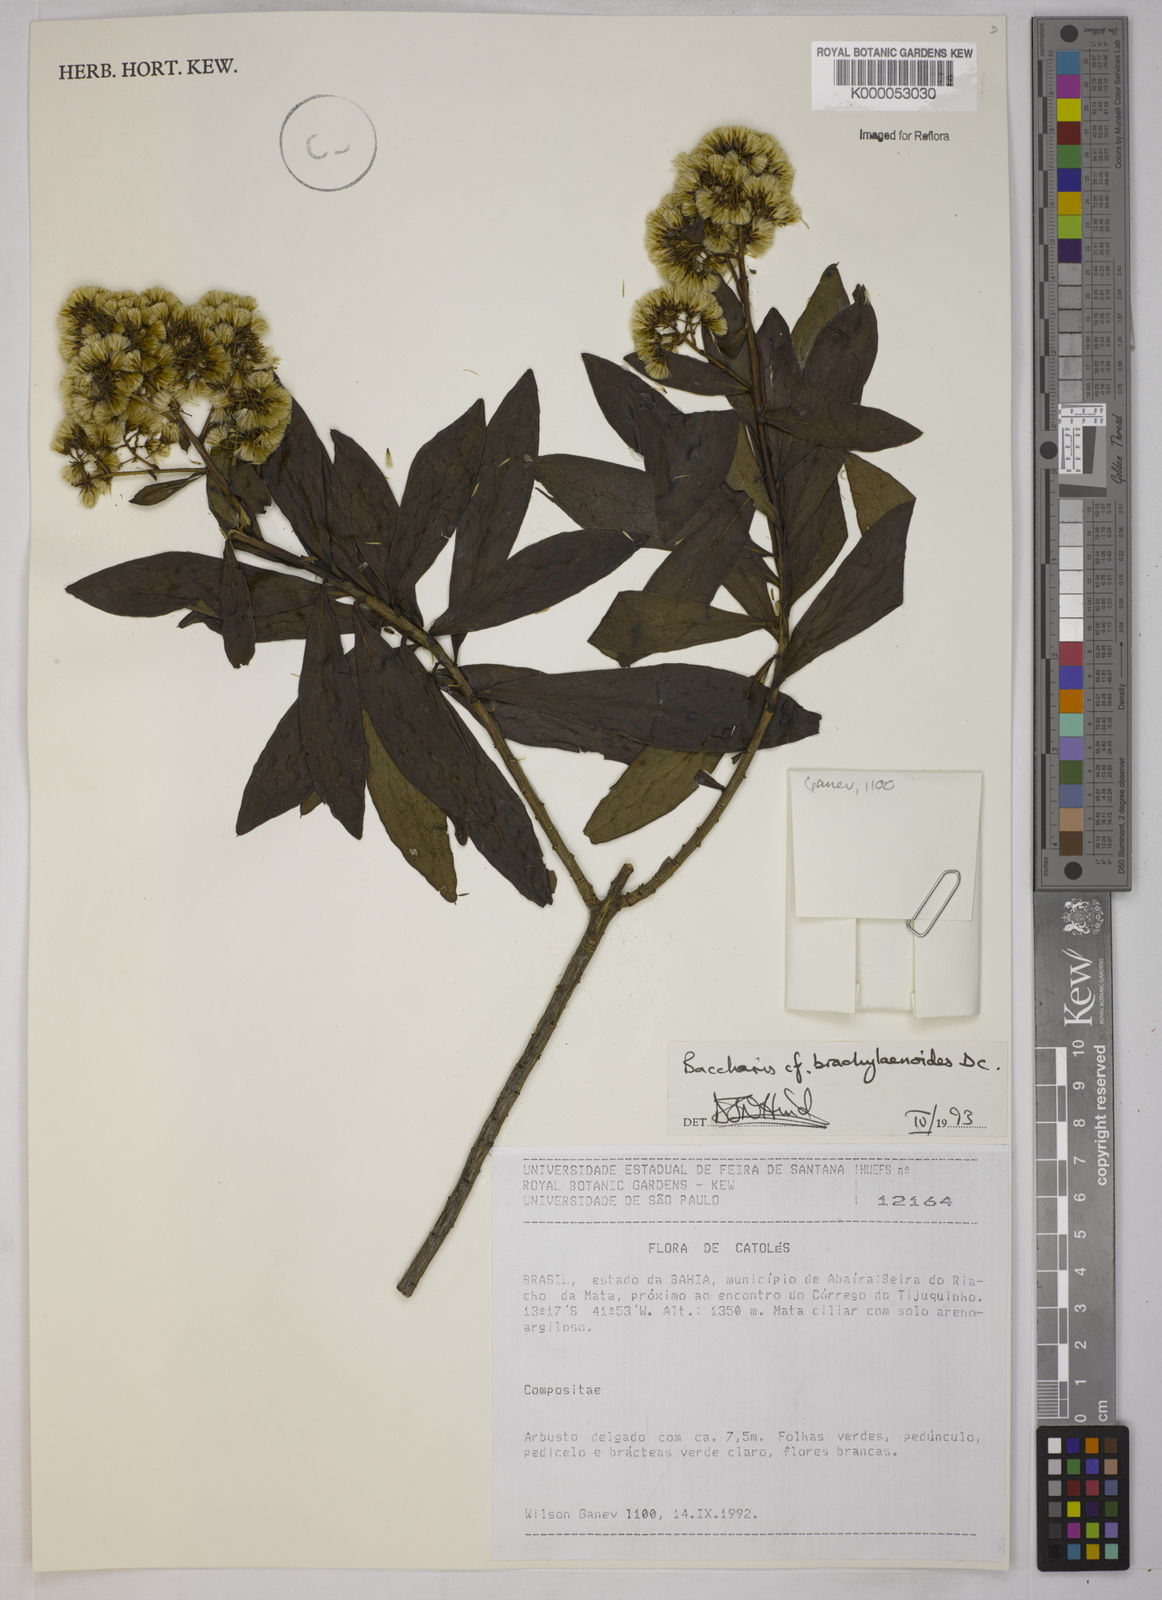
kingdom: Plantae
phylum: Tracheophyta
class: Magnoliopsida
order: Asterales
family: Asteraceae
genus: Baccharis
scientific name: Baccharis oblongifolia
